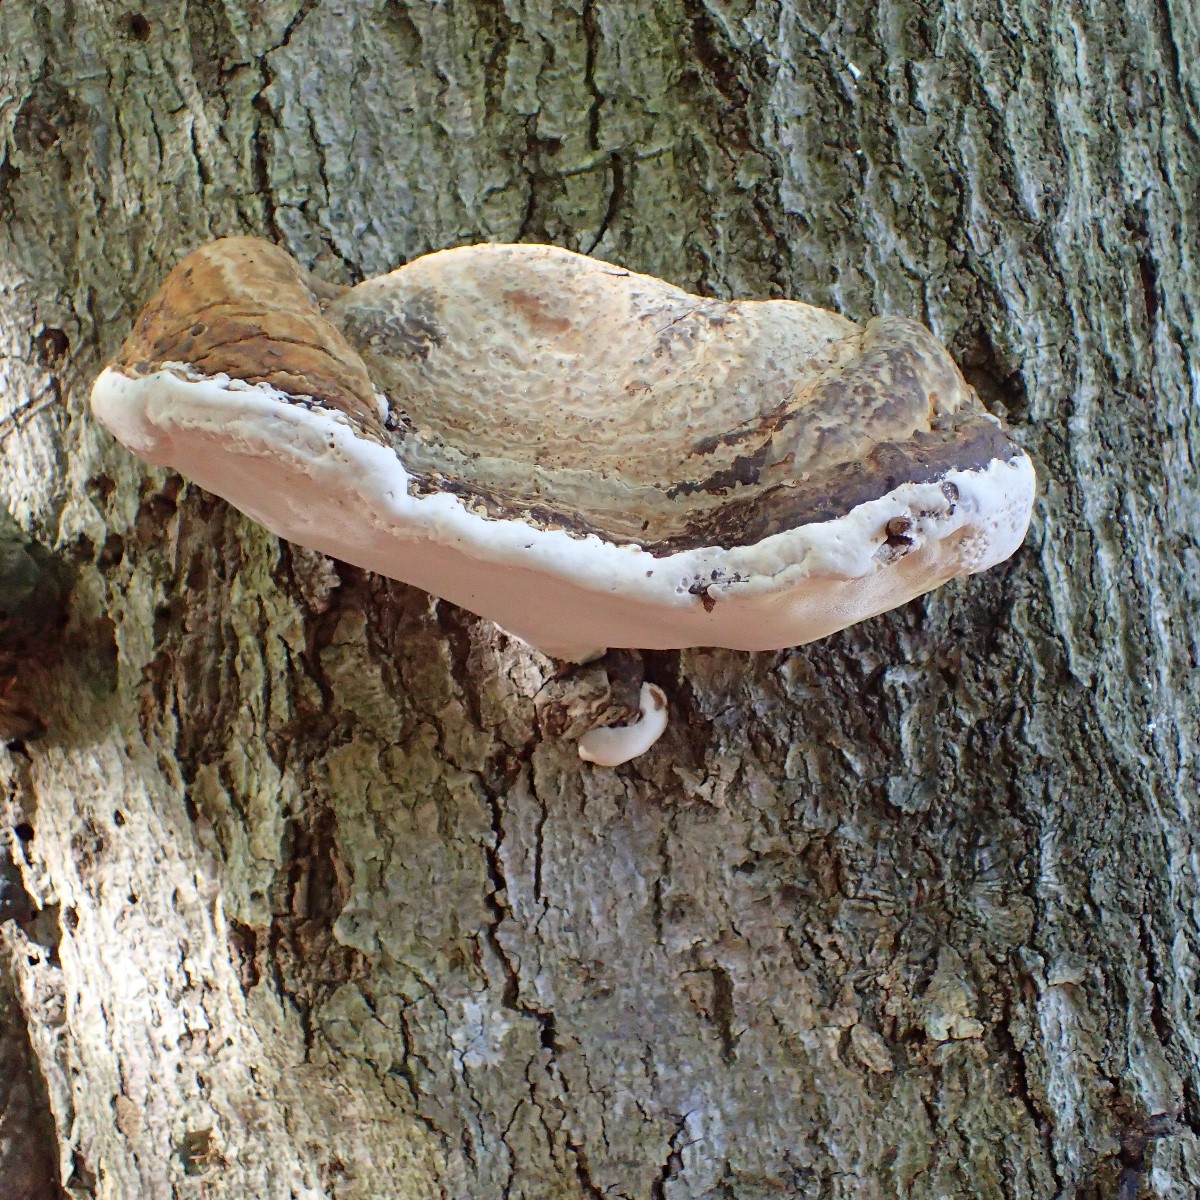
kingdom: Fungi
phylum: Basidiomycota
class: Agaricomycetes
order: Polyporales
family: Polyporaceae
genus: Ganoderma
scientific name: Ganoderma pfeifferi
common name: kobberrød lakporesvamp
